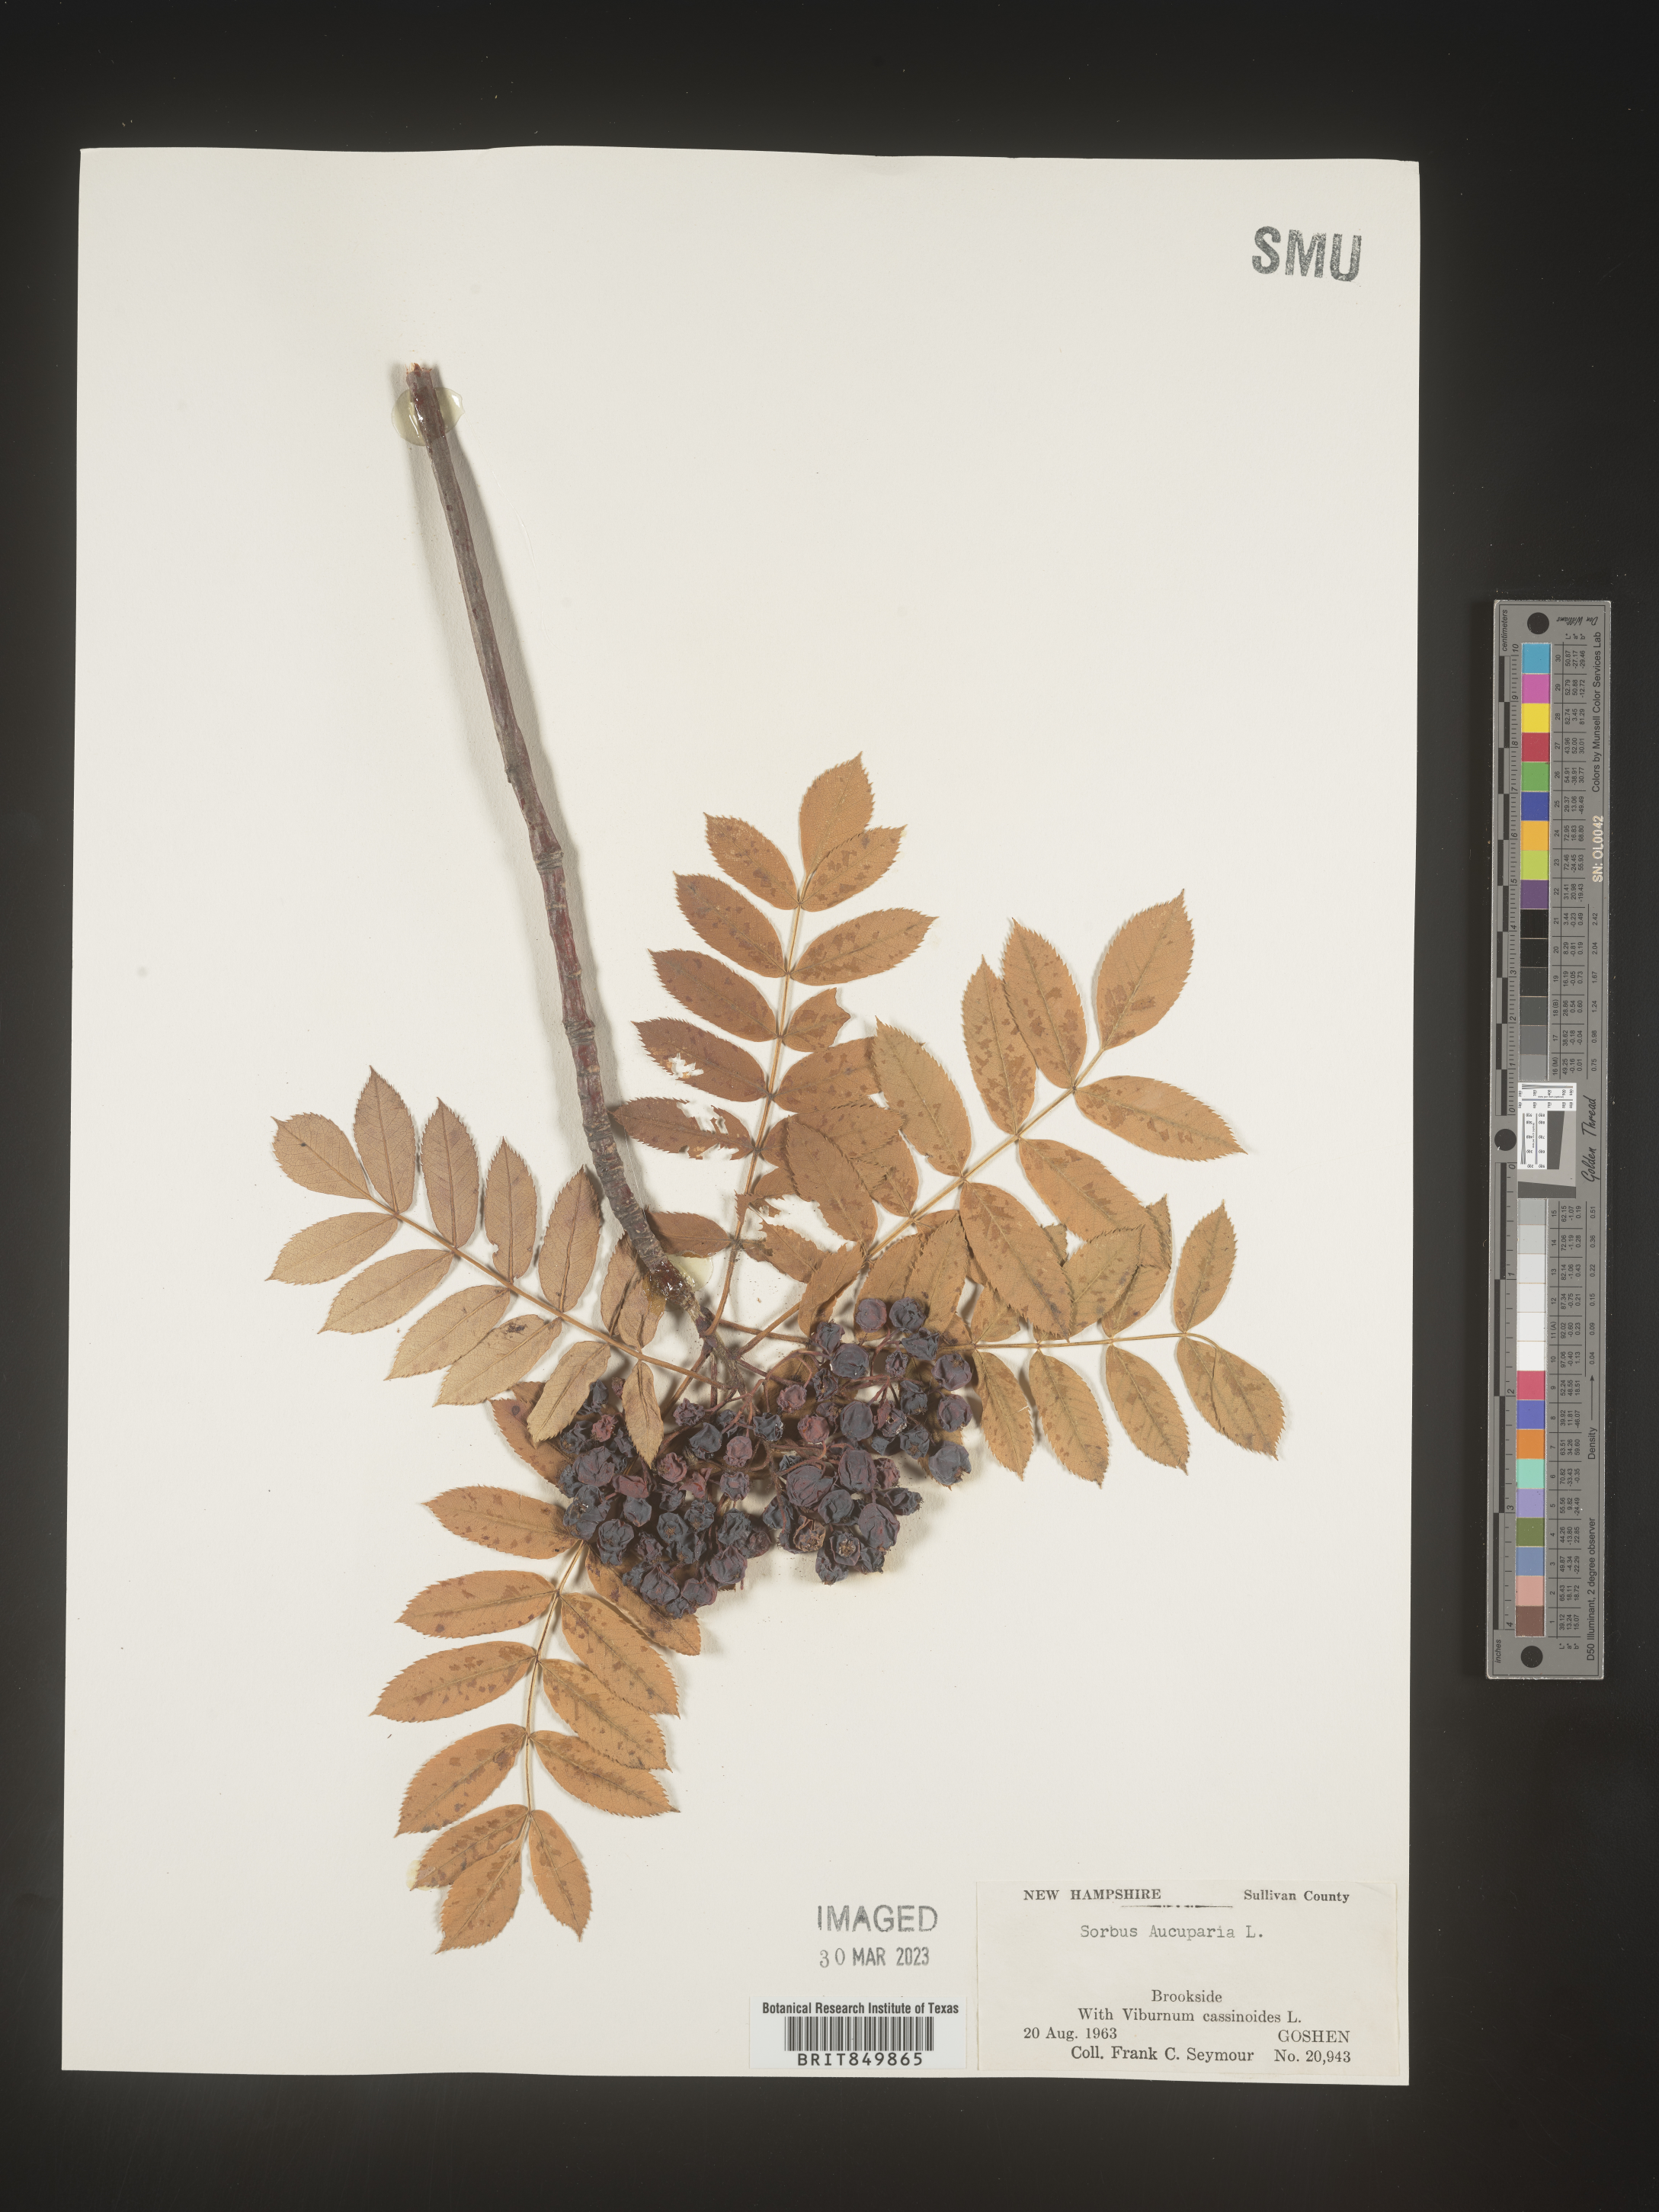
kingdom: Plantae
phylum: Tracheophyta
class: Magnoliopsida
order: Rosales
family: Rosaceae
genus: Sorbus
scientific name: Sorbus
